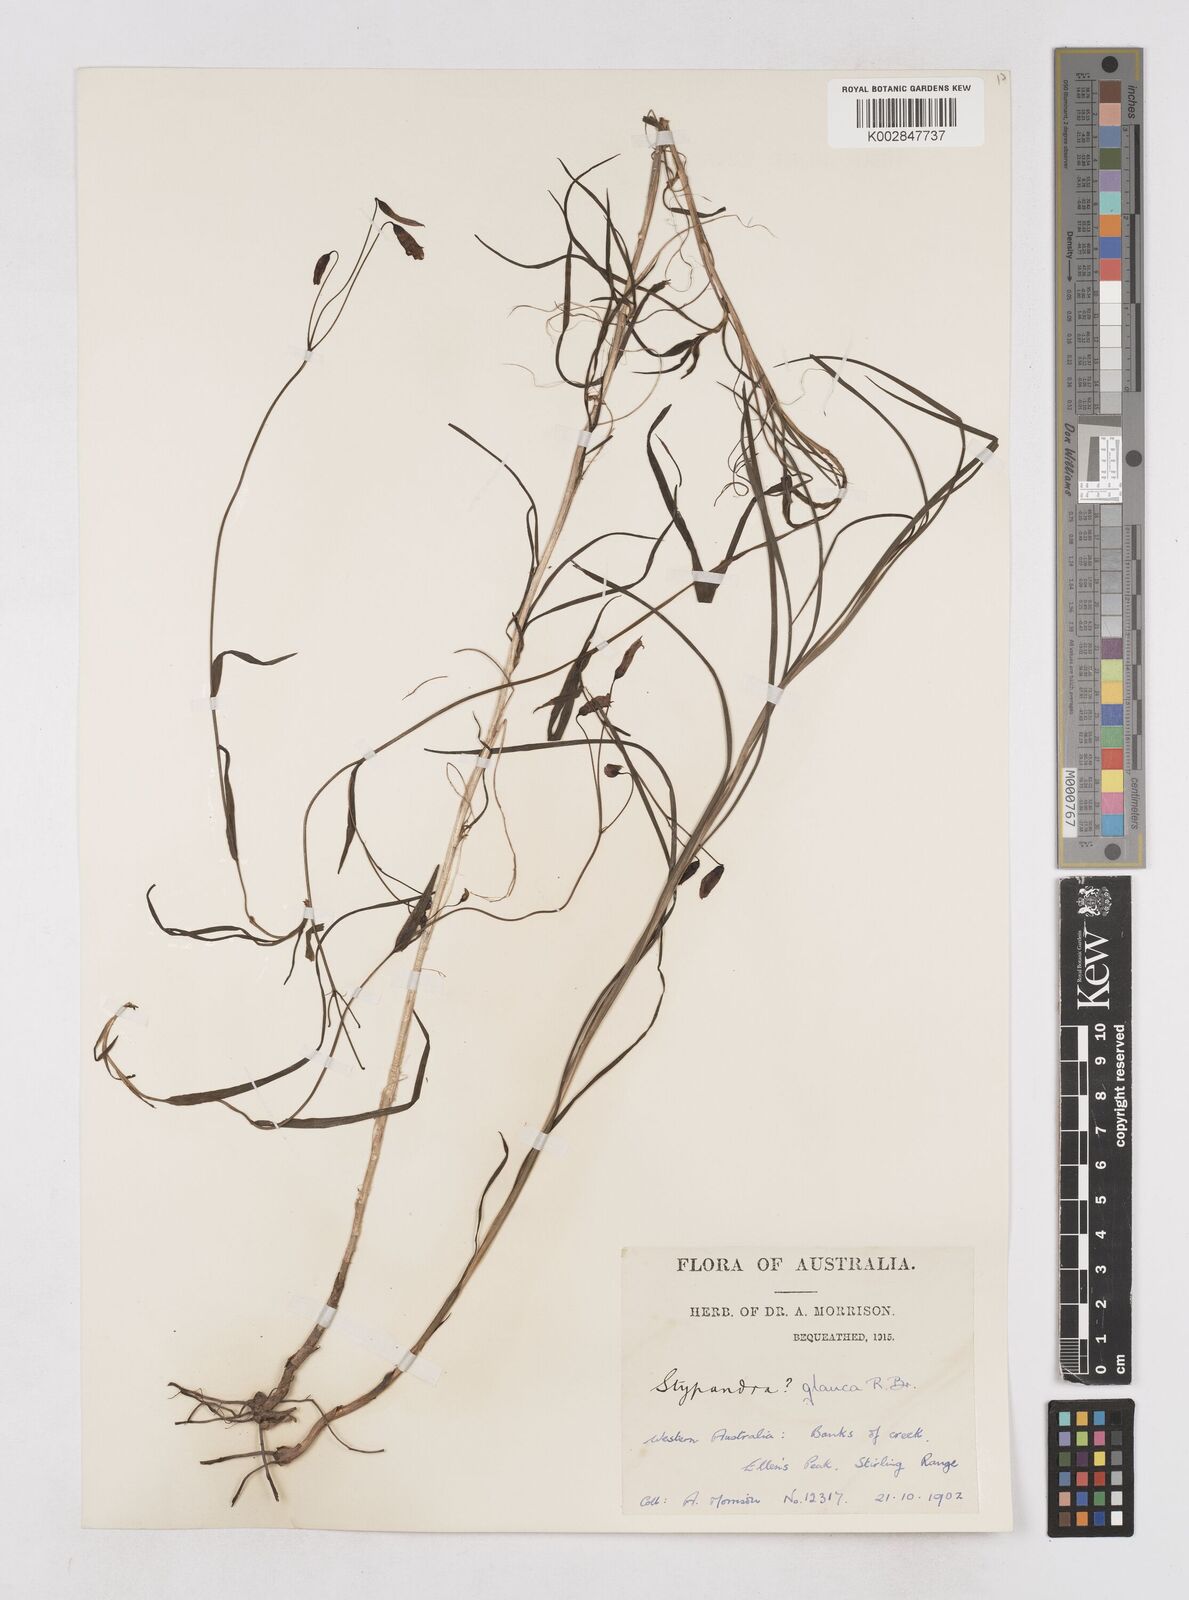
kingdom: Plantae
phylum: Tracheophyta
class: Liliopsida
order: Asparagales
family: Asphodelaceae
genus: Stypandra
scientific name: Stypandra glauca
